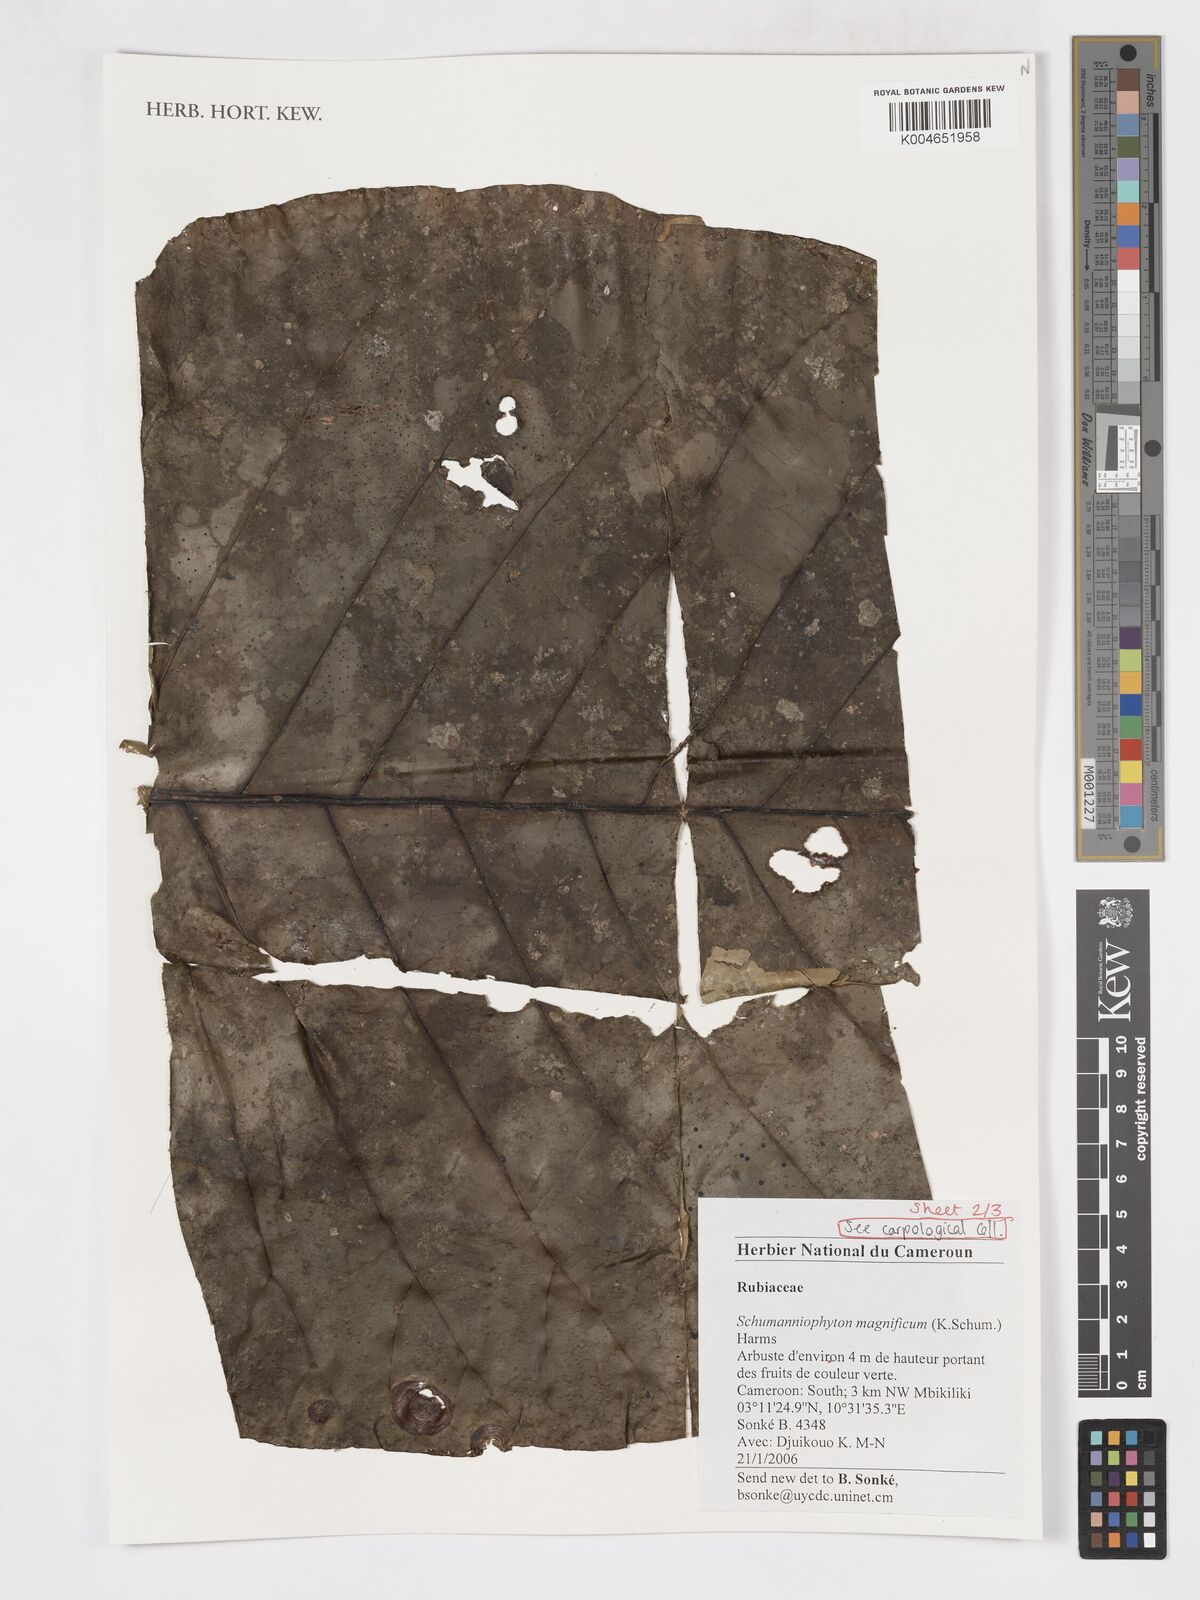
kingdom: Plantae
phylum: Tracheophyta
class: Magnoliopsida
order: Gentianales
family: Rubiaceae
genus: Schumanniophyton
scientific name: Schumanniophyton magnificum
